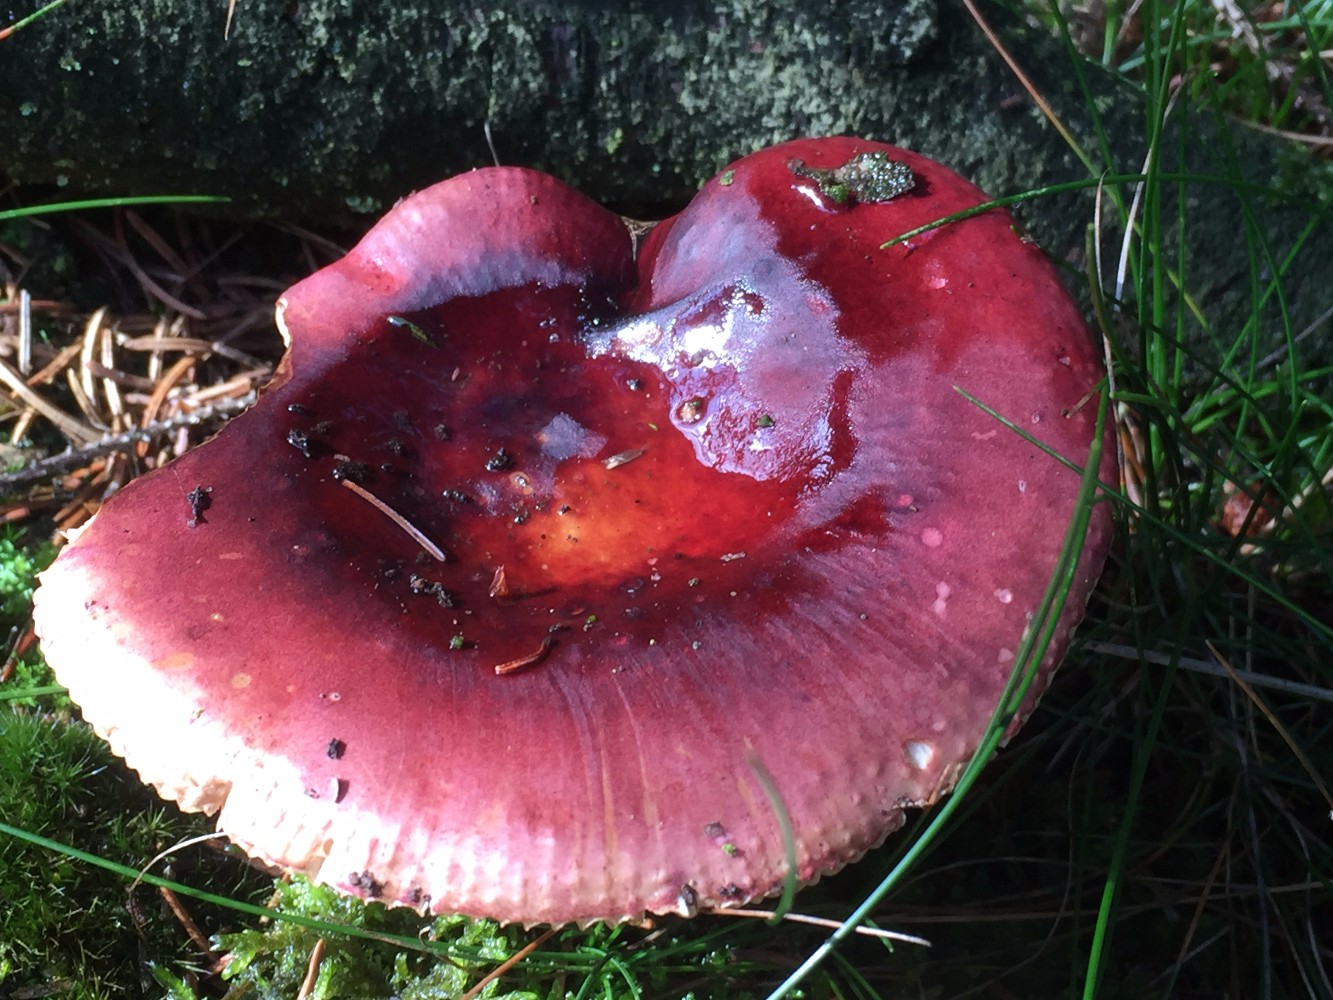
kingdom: Fungi
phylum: Basidiomycota
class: Agaricomycetes
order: Russulales
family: Russulaceae
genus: Russula
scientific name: Russula queletii
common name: Quélets skørhat
